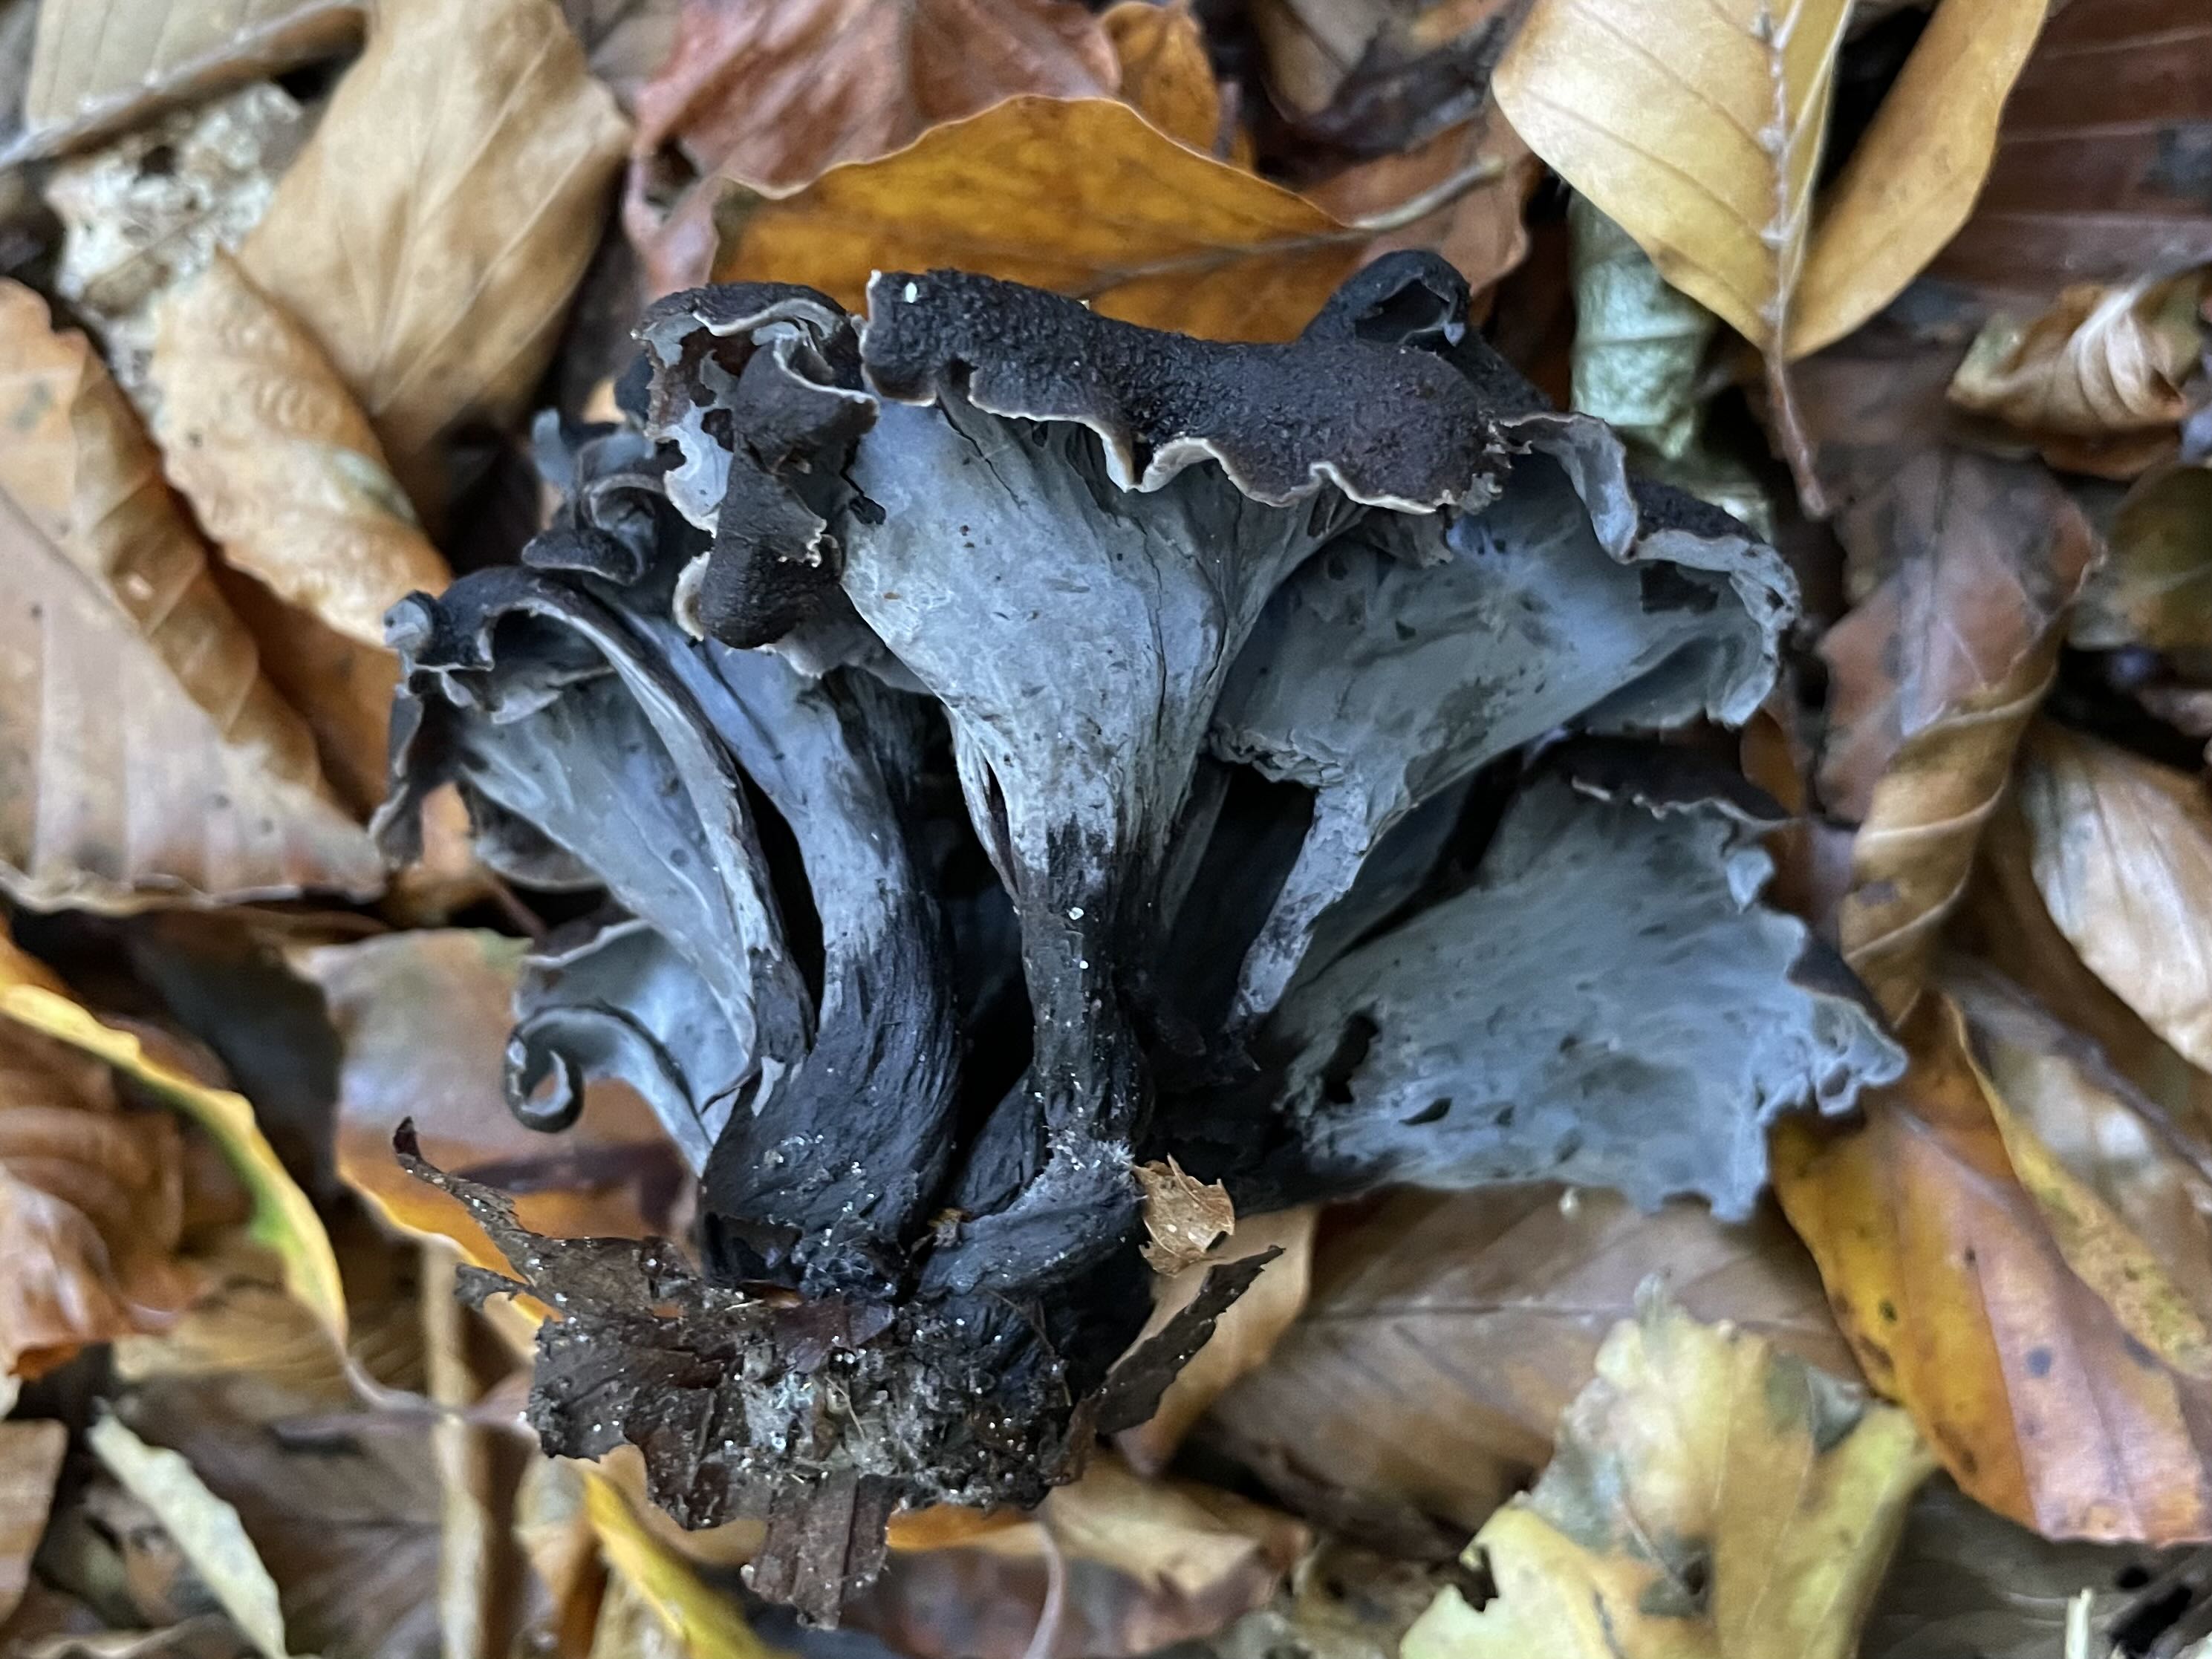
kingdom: Fungi
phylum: Basidiomycota
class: Agaricomycetes
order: Cantharellales
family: Hydnaceae
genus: Craterellus
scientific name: Craterellus cornucopioides
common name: trompetsvamp
